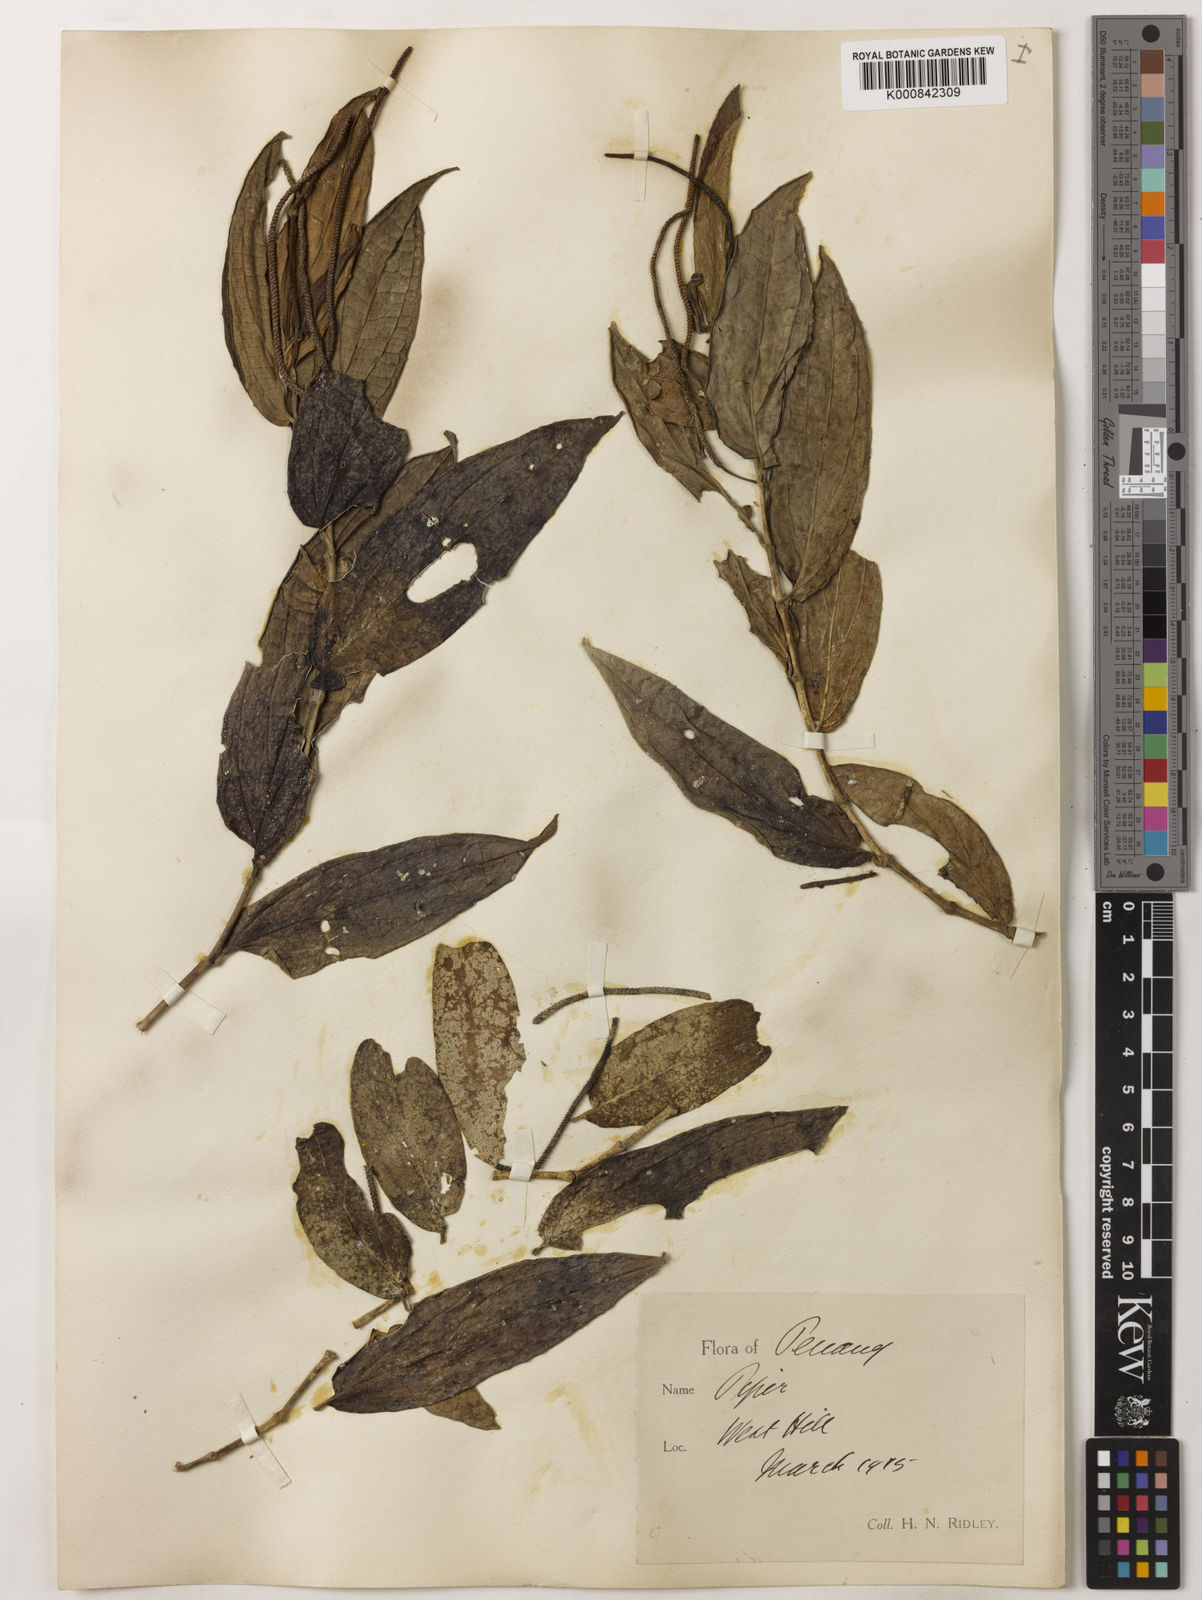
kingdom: Plantae
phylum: Tracheophyta
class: Magnoliopsida
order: Piperales
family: Piperaceae
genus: Piper
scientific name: Piper frustratum
